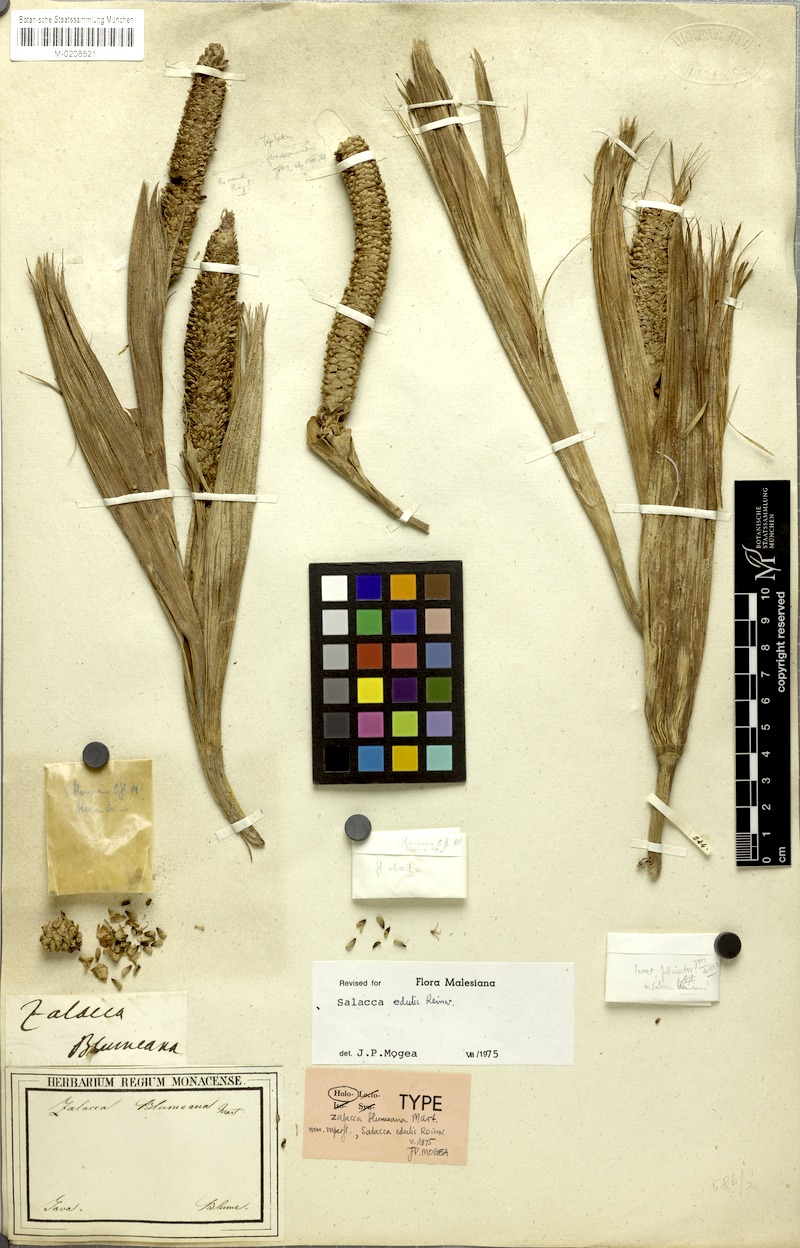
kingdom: Plantae
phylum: Tracheophyta
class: Liliopsida
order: Arecales
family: Arecaceae
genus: Salacca
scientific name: Salacca zalacca
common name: Salak
